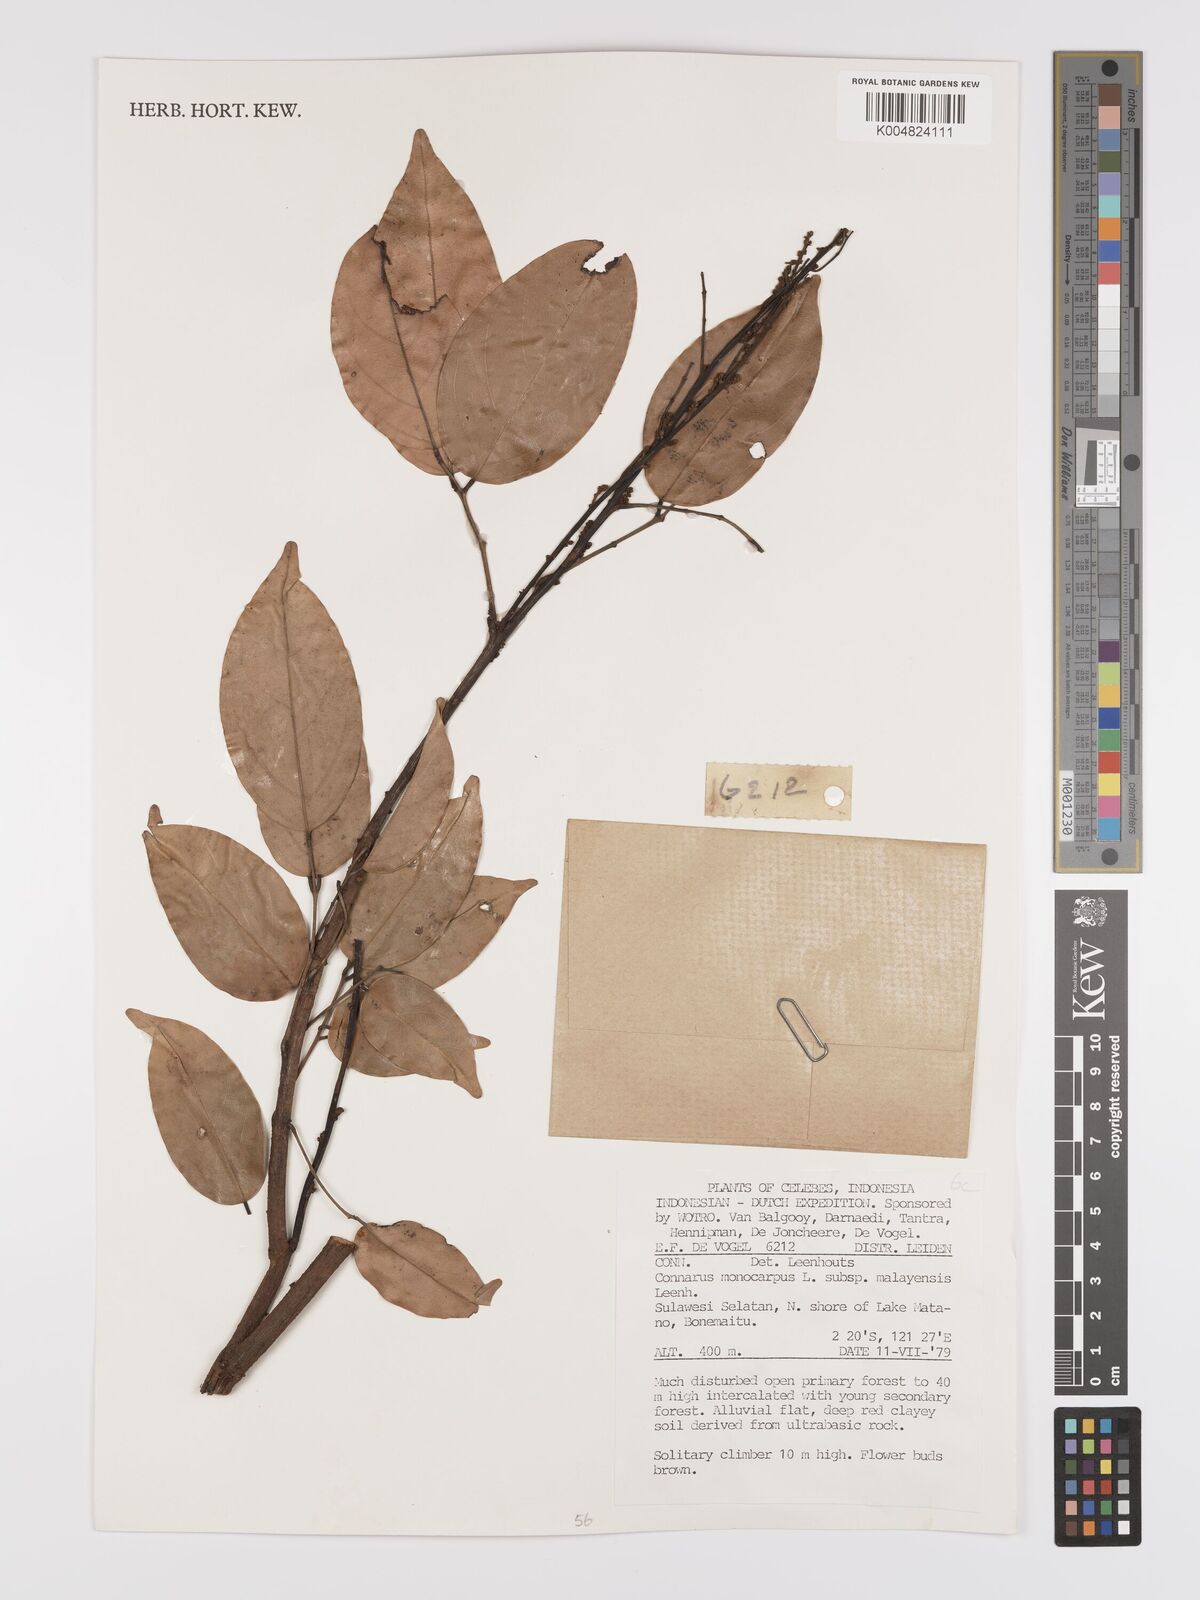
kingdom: Plantae
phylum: Tracheophyta
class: Magnoliopsida
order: Oxalidales
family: Connaraceae
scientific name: Connaraceae
